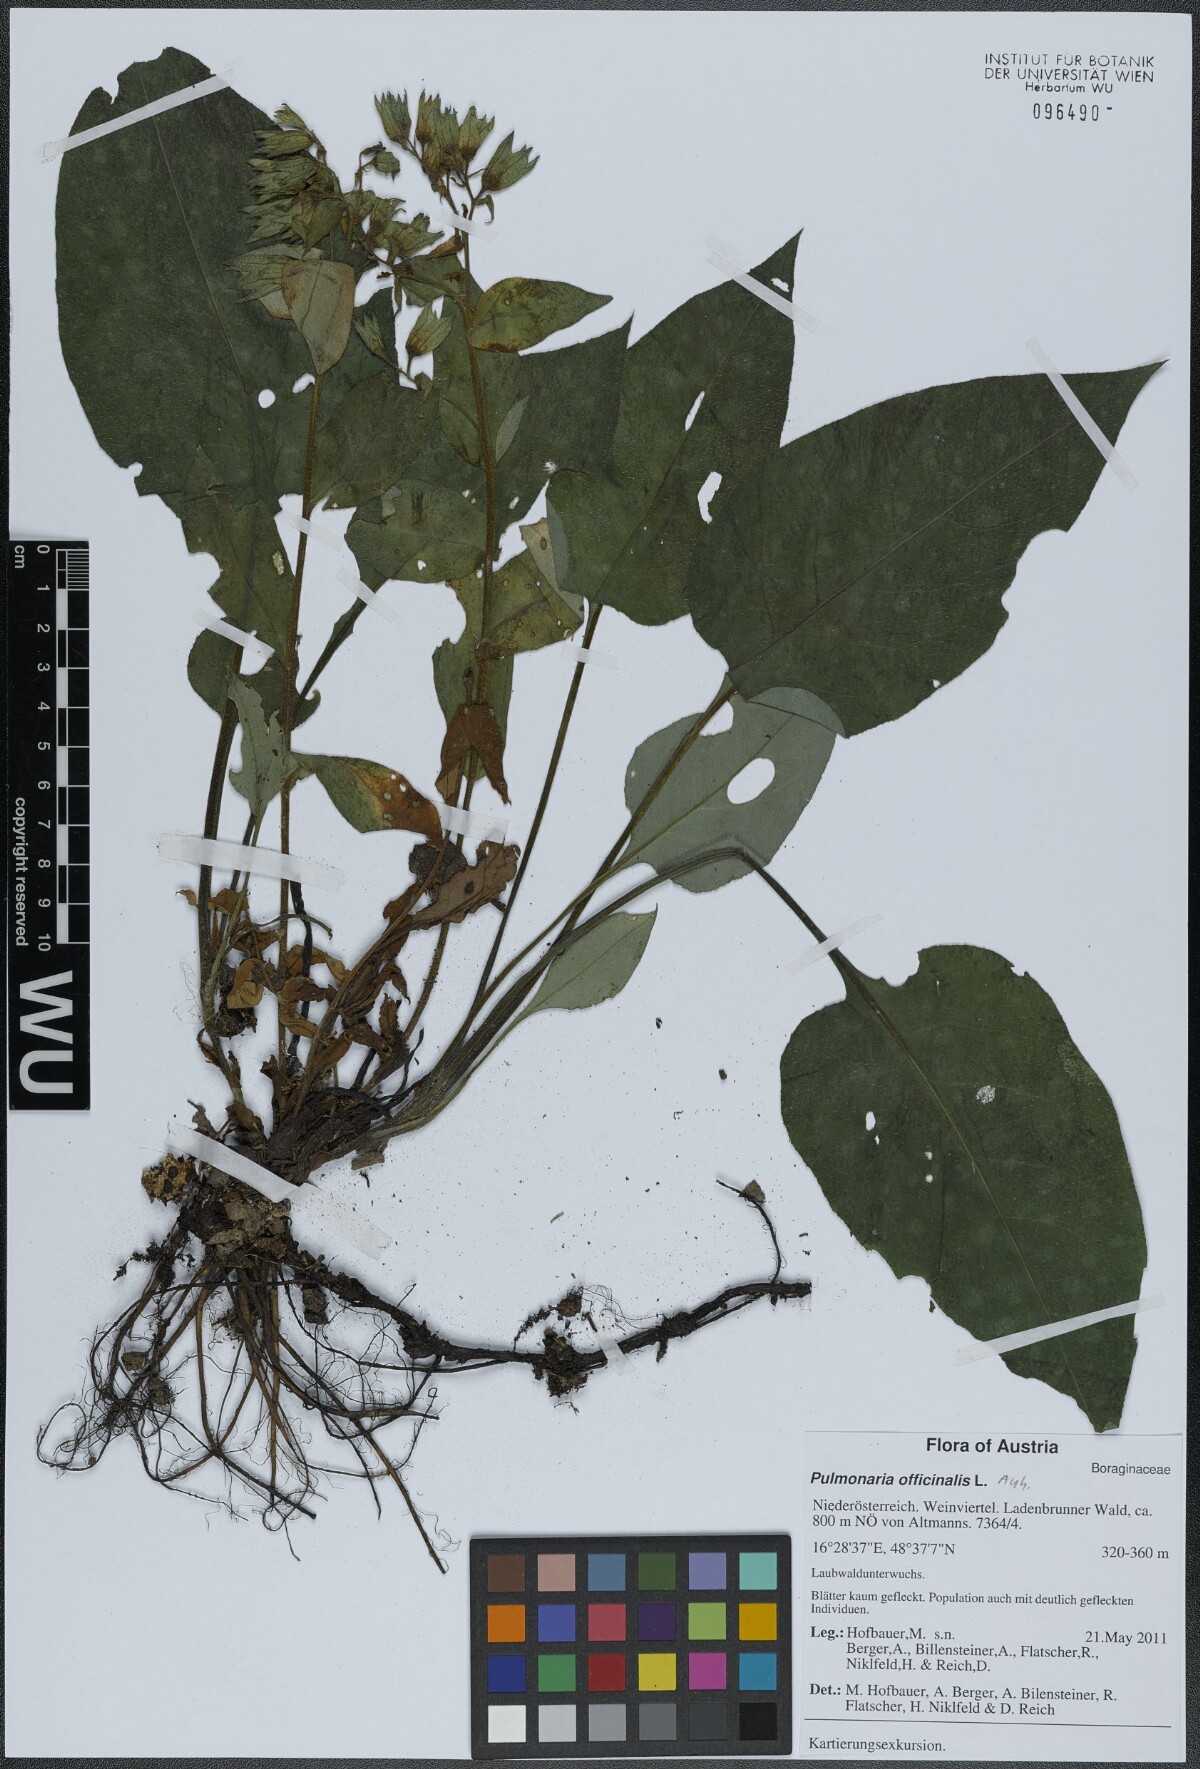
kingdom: Plantae
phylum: Tracheophyta
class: Magnoliopsida
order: Boraginales
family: Boraginaceae
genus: Pulmonaria
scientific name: Pulmonaria officinalis
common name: Lungwort
